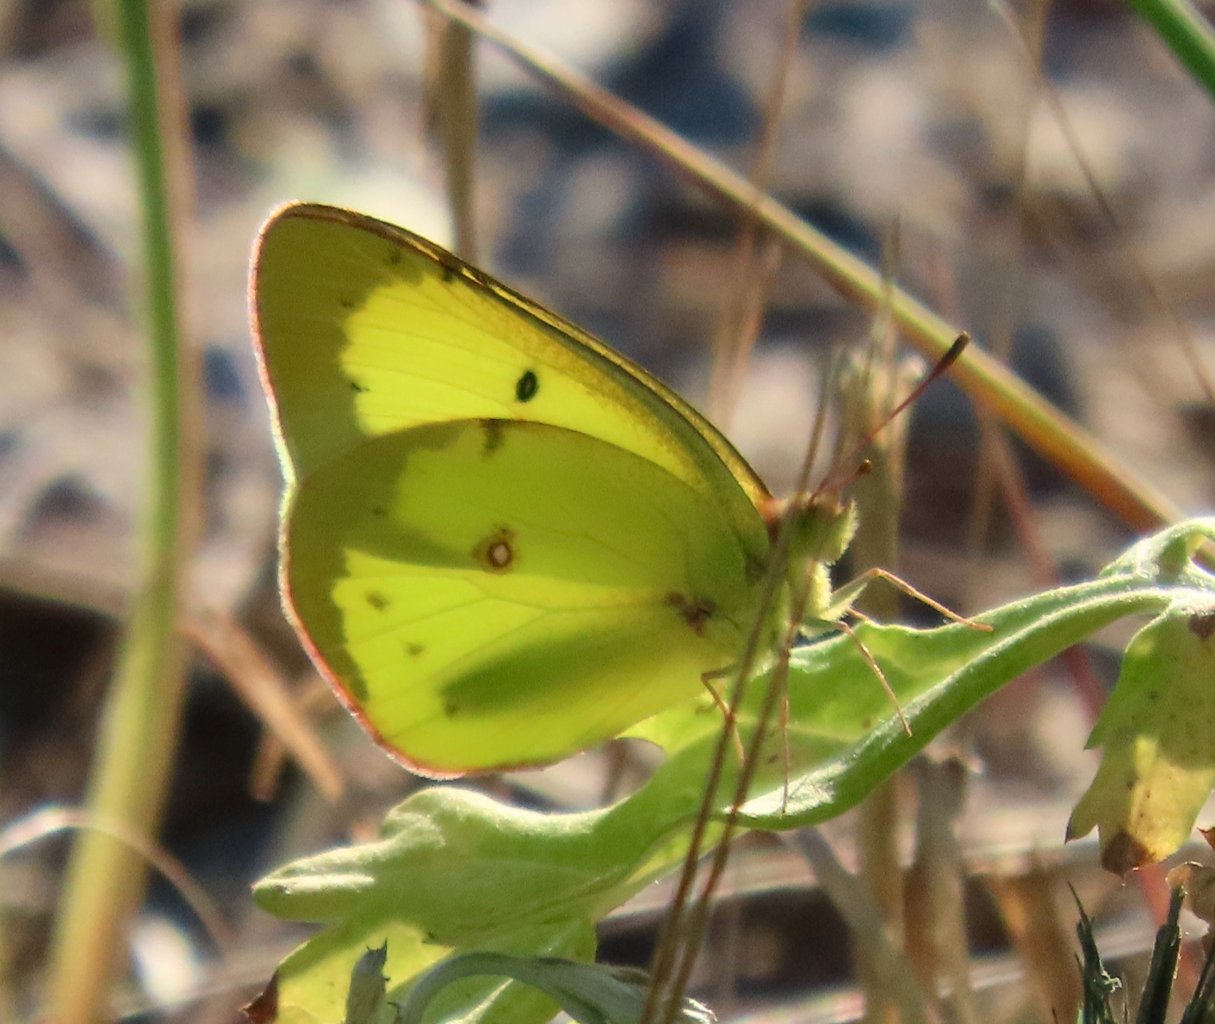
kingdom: Animalia
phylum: Arthropoda
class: Insecta
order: Lepidoptera
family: Pieridae
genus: Colias
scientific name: Colias philodice
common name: Clouded Sulphur
